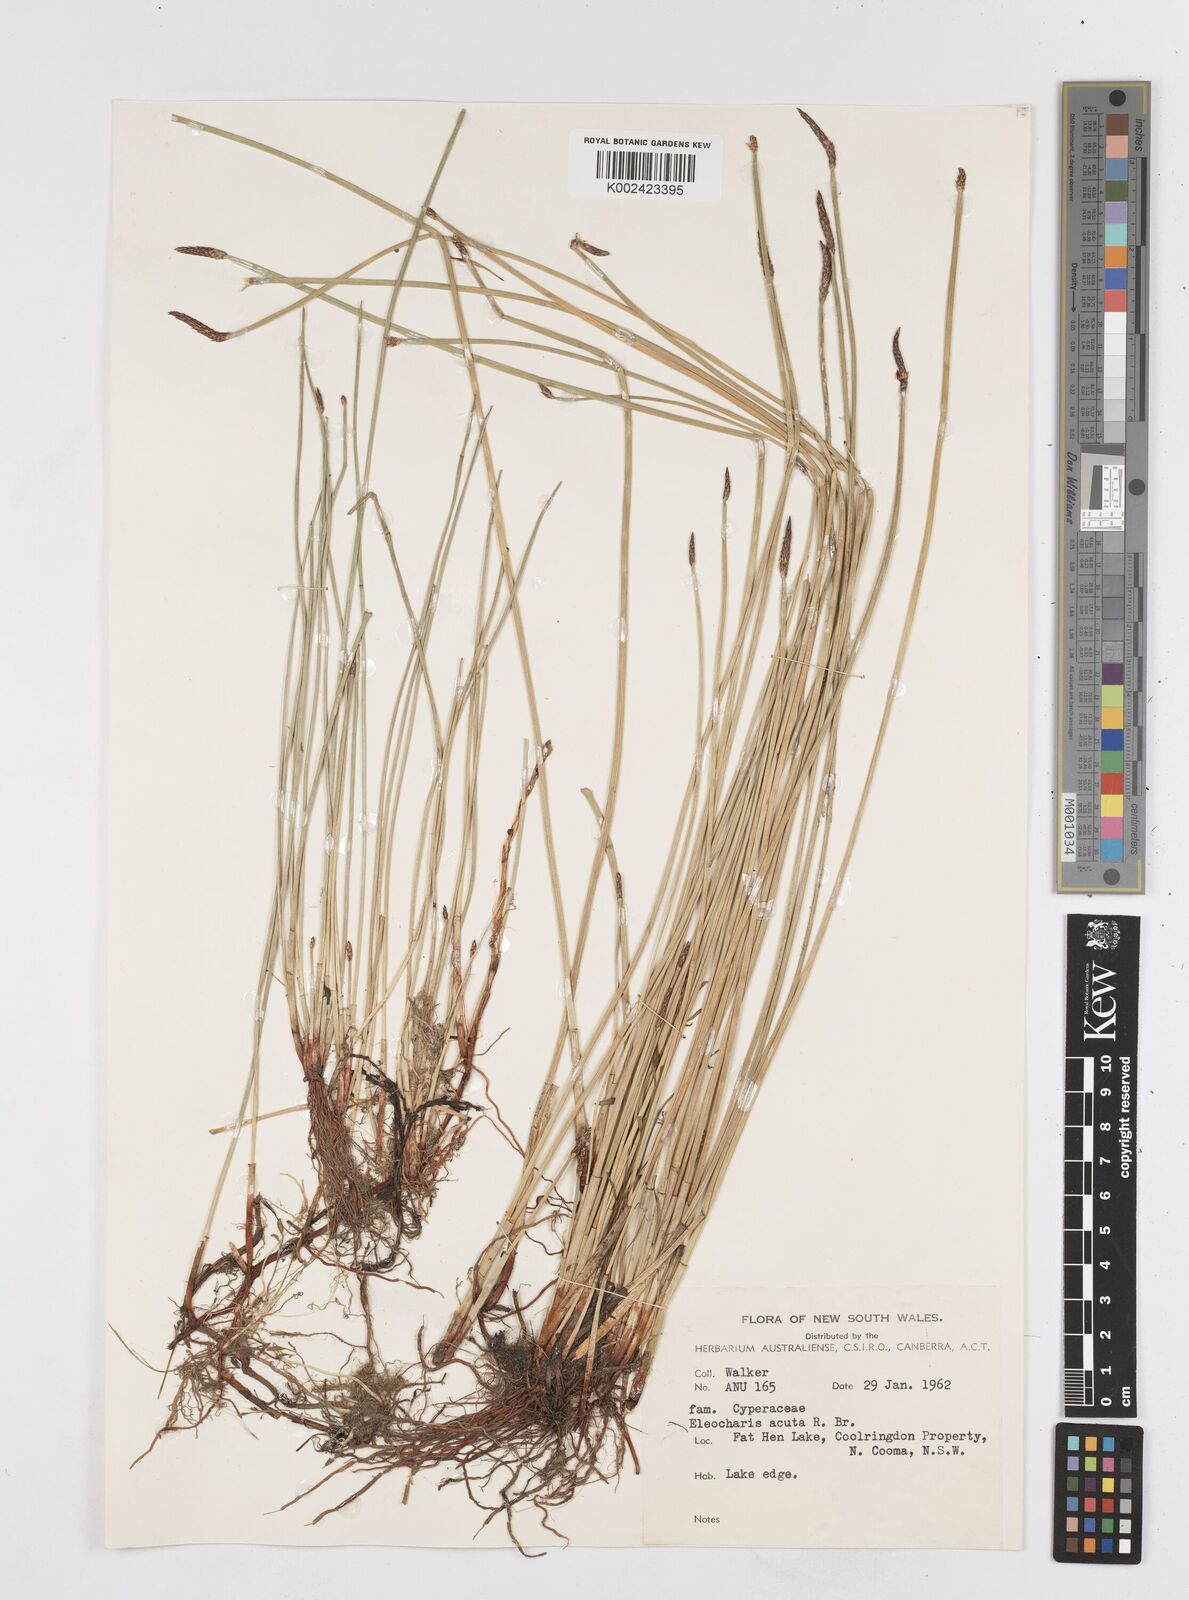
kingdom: Plantae
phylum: Tracheophyta
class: Liliopsida
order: Poales
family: Cyperaceae
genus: Eleocharis
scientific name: Eleocharis acuta
